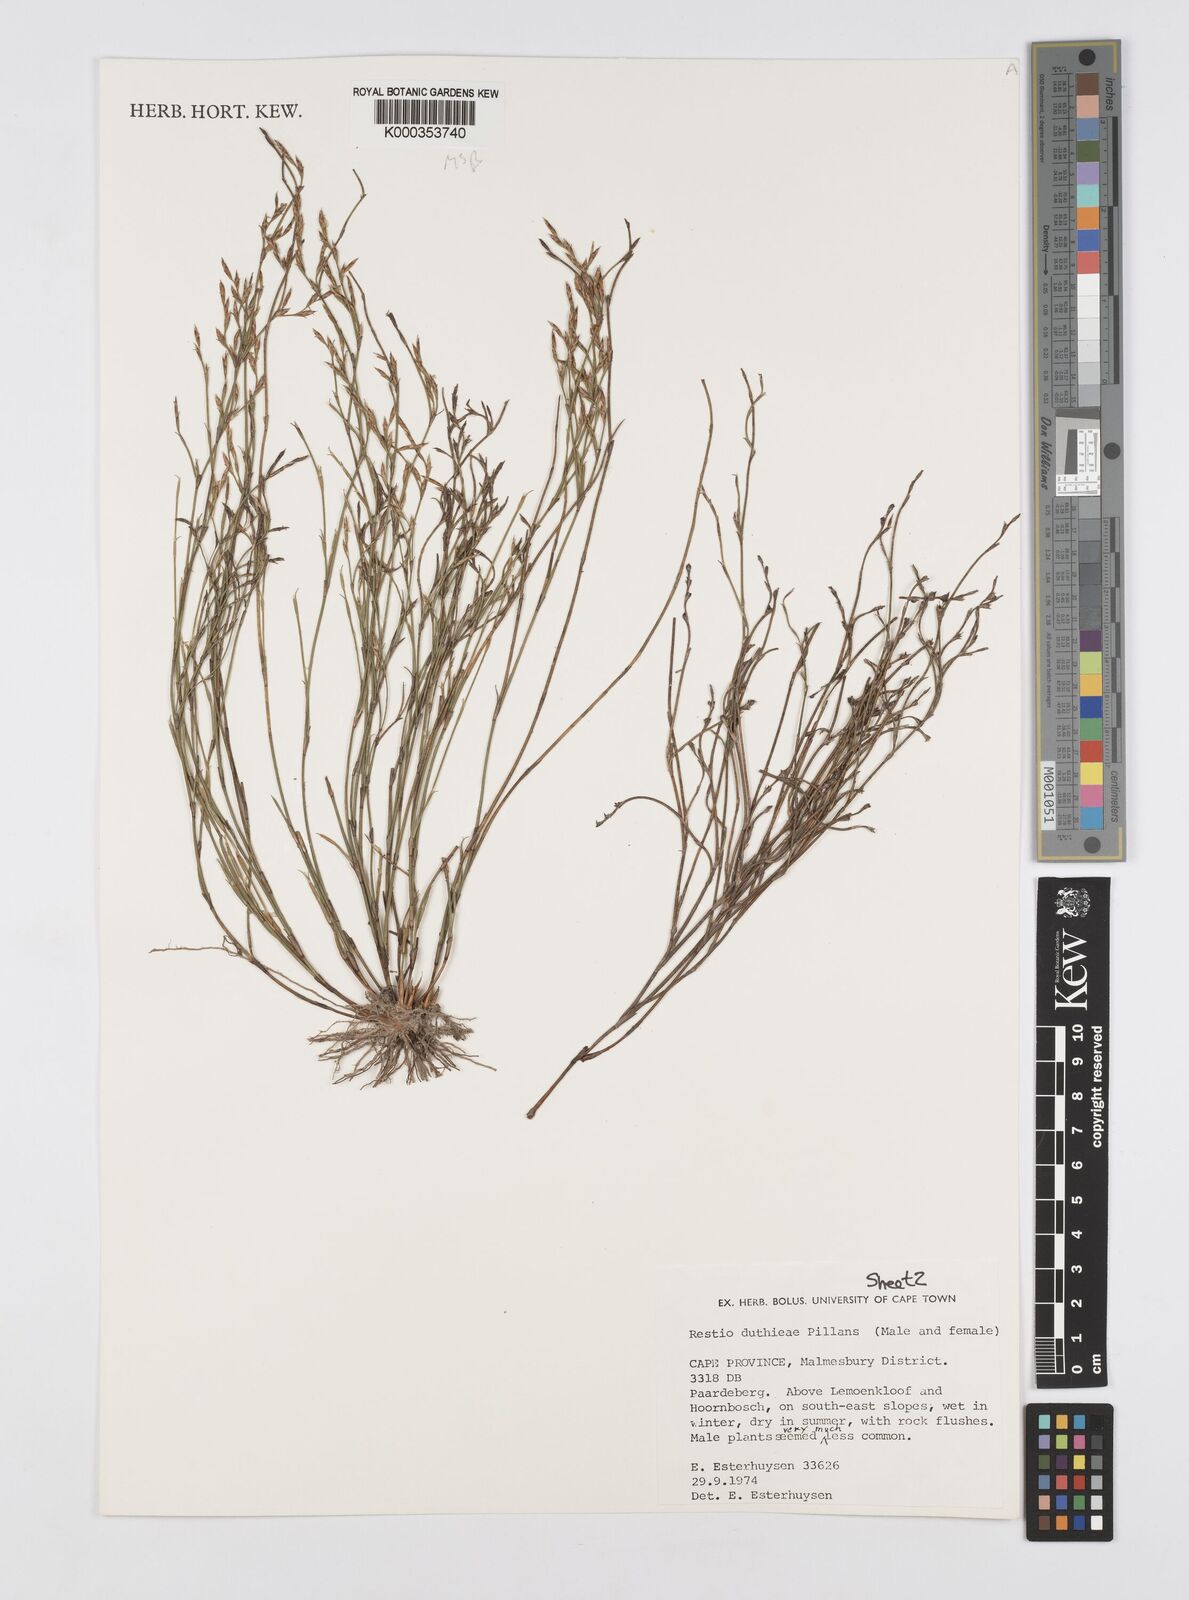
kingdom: Plantae
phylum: Tracheophyta
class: Liliopsida
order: Poales
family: Restionaceae
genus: Restio
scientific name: Restio duthieae
